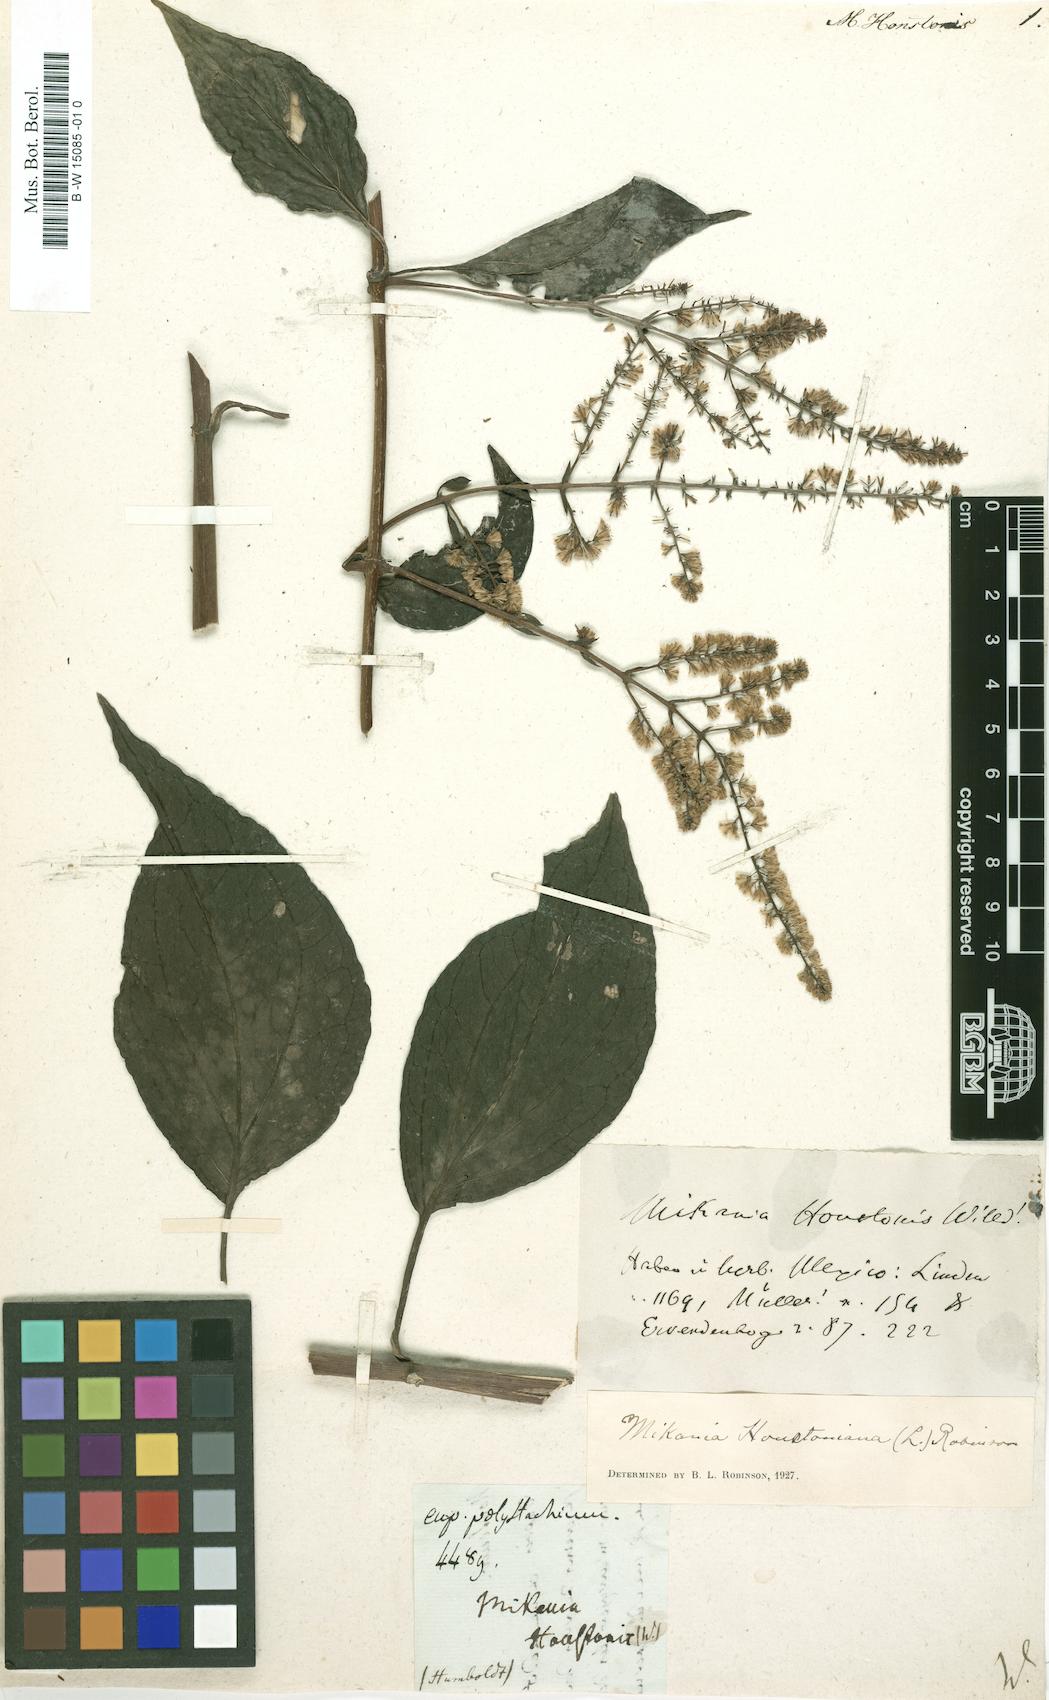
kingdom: Plantae
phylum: Tracheophyta
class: Magnoliopsida
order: Asterales
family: Asteraceae
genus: Mikania
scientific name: Mikania houstoniana
